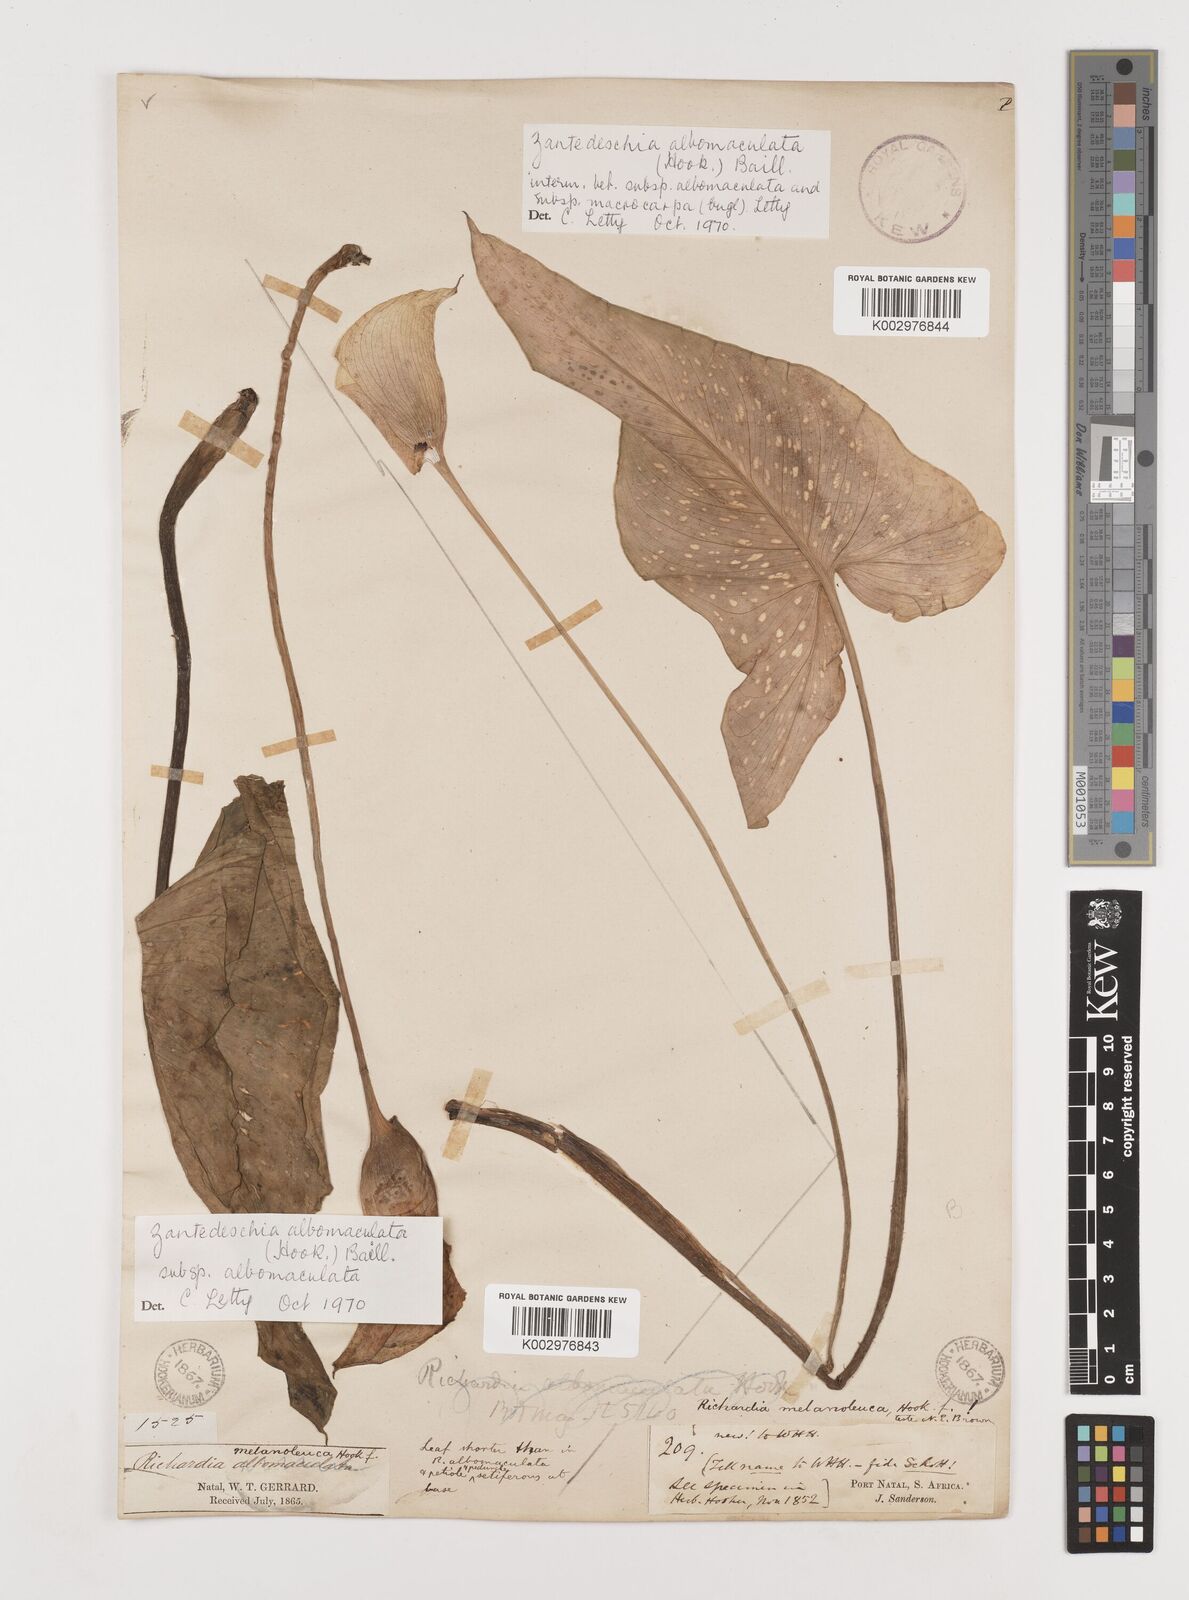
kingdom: Plantae
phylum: Tracheophyta
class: Liliopsida
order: Alismatales
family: Araceae
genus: Zantedeschia
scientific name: Zantedeschia albomaculata
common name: Spotted calla lily
